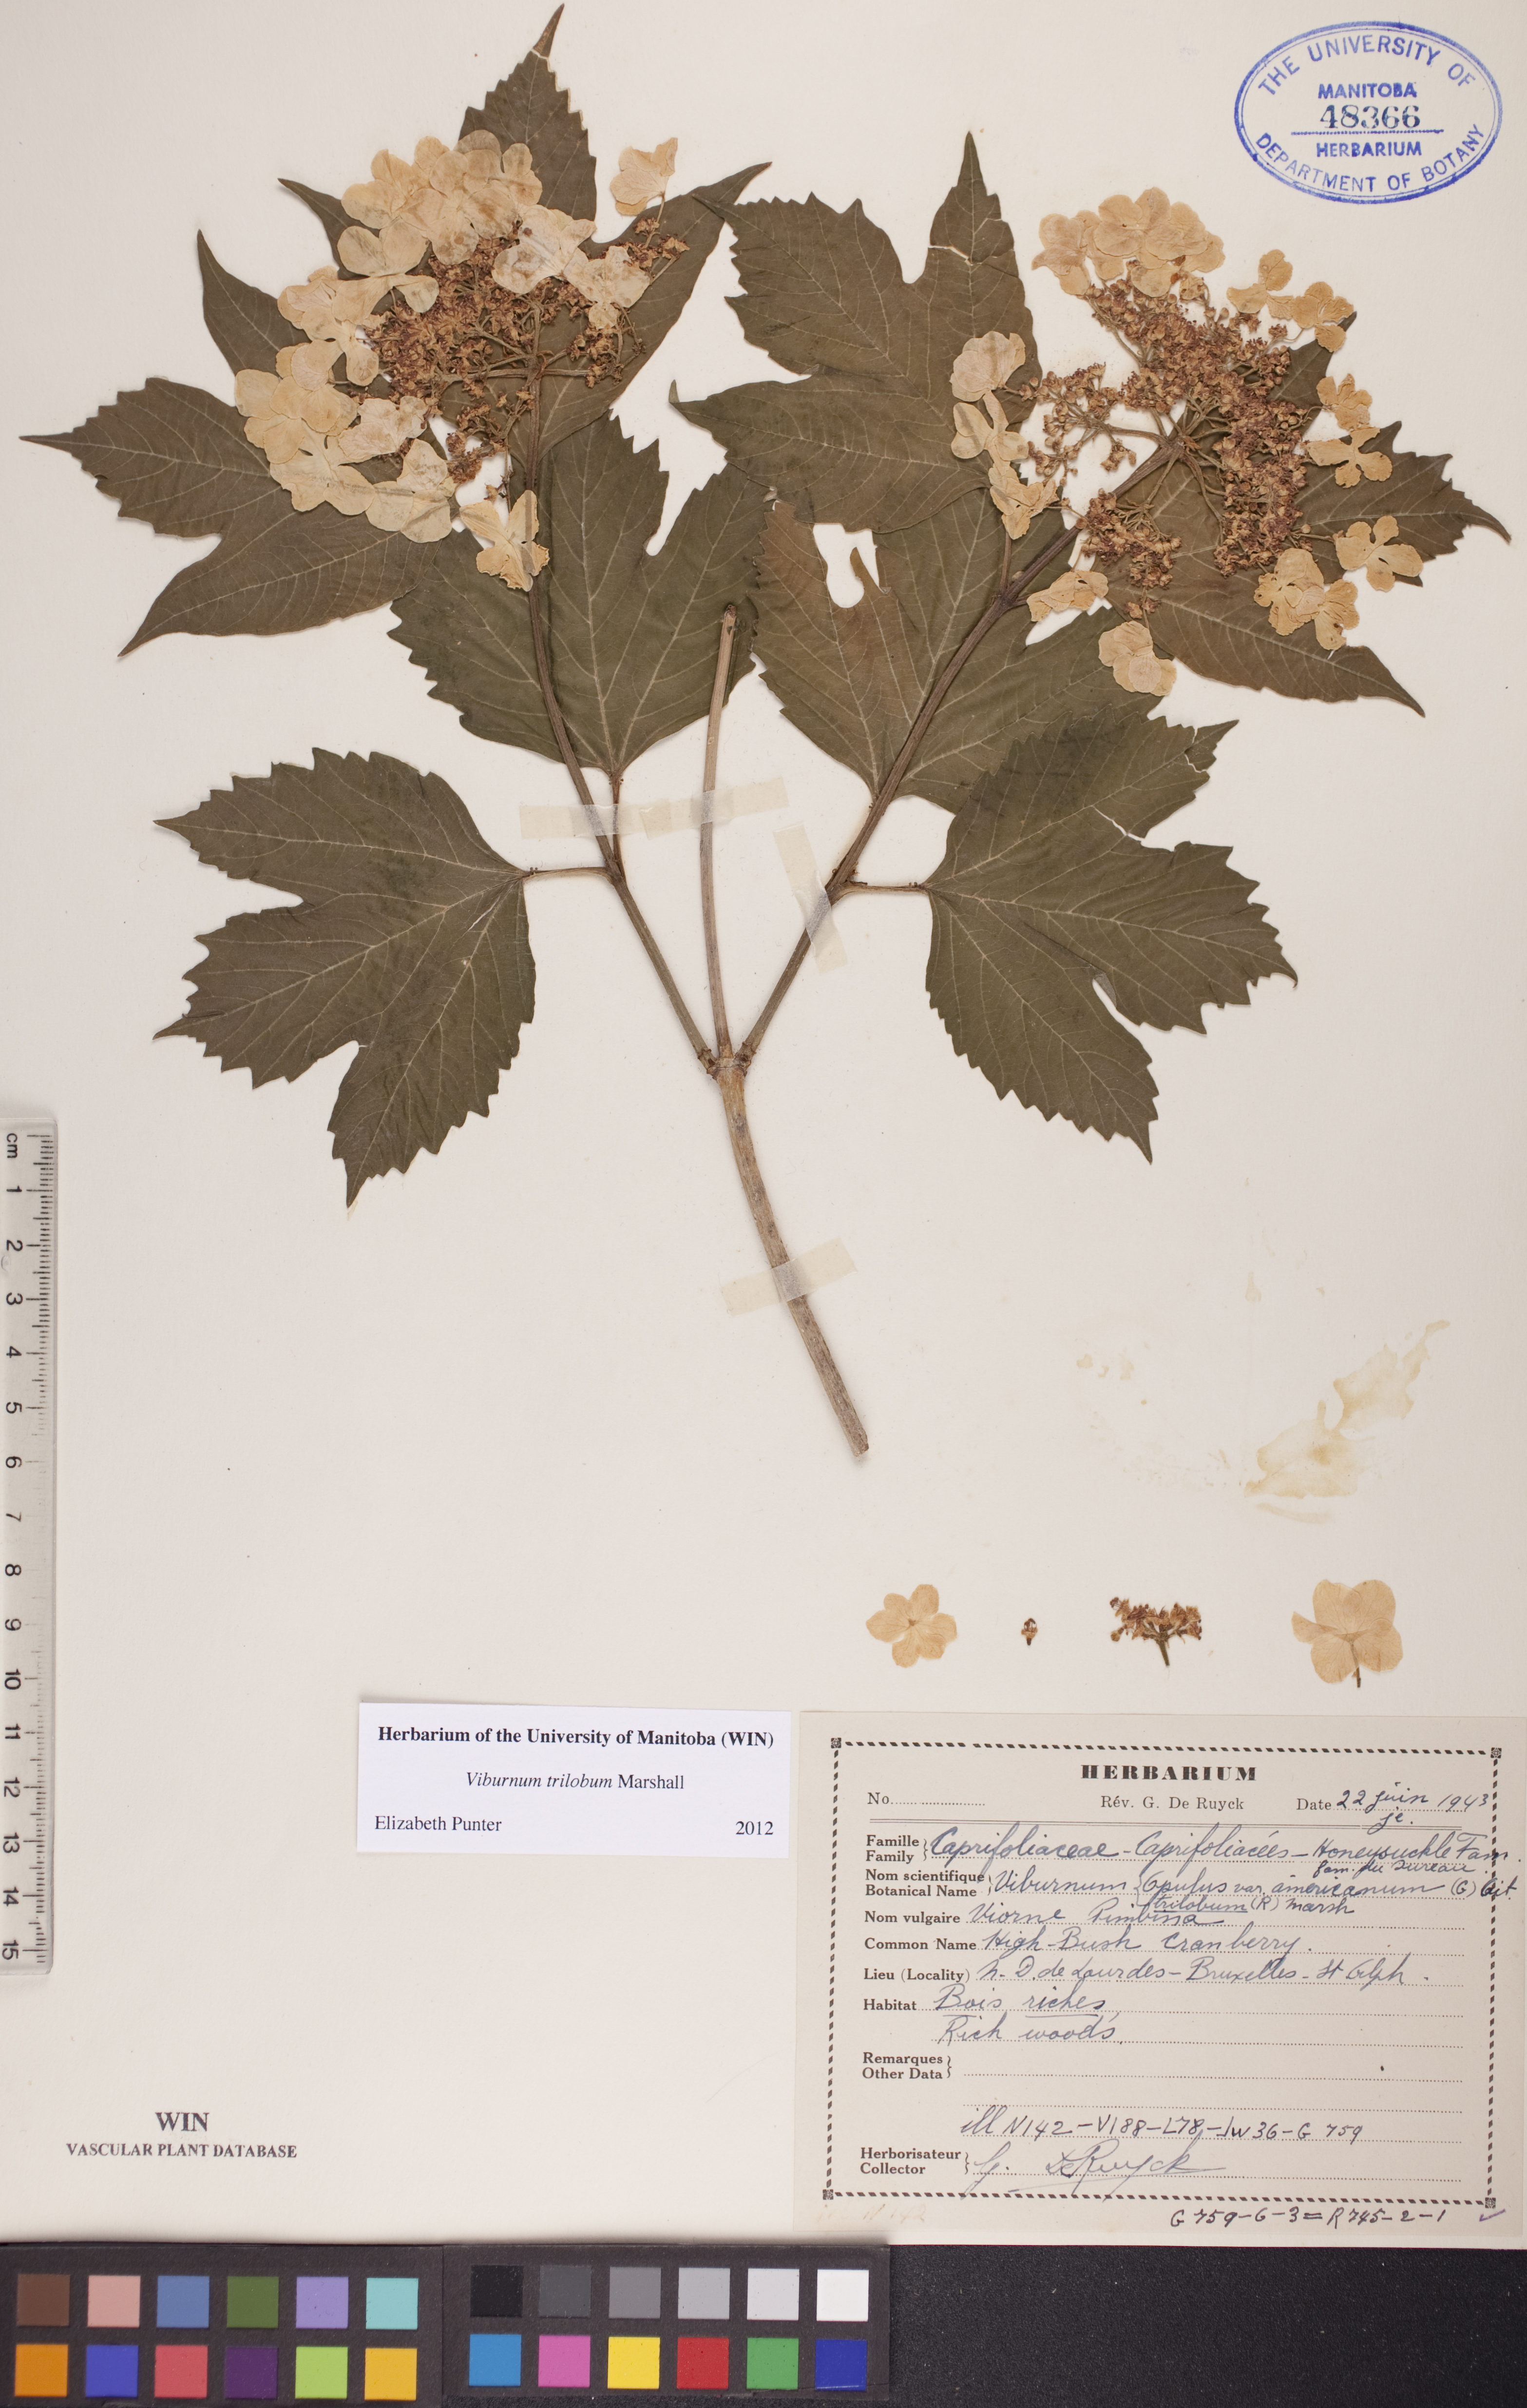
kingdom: Plantae
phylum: Tracheophyta
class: Magnoliopsida
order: Dipsacales
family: Viburnaceae
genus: Viburnum
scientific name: Viburnum trilobum
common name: American cranberrybush
